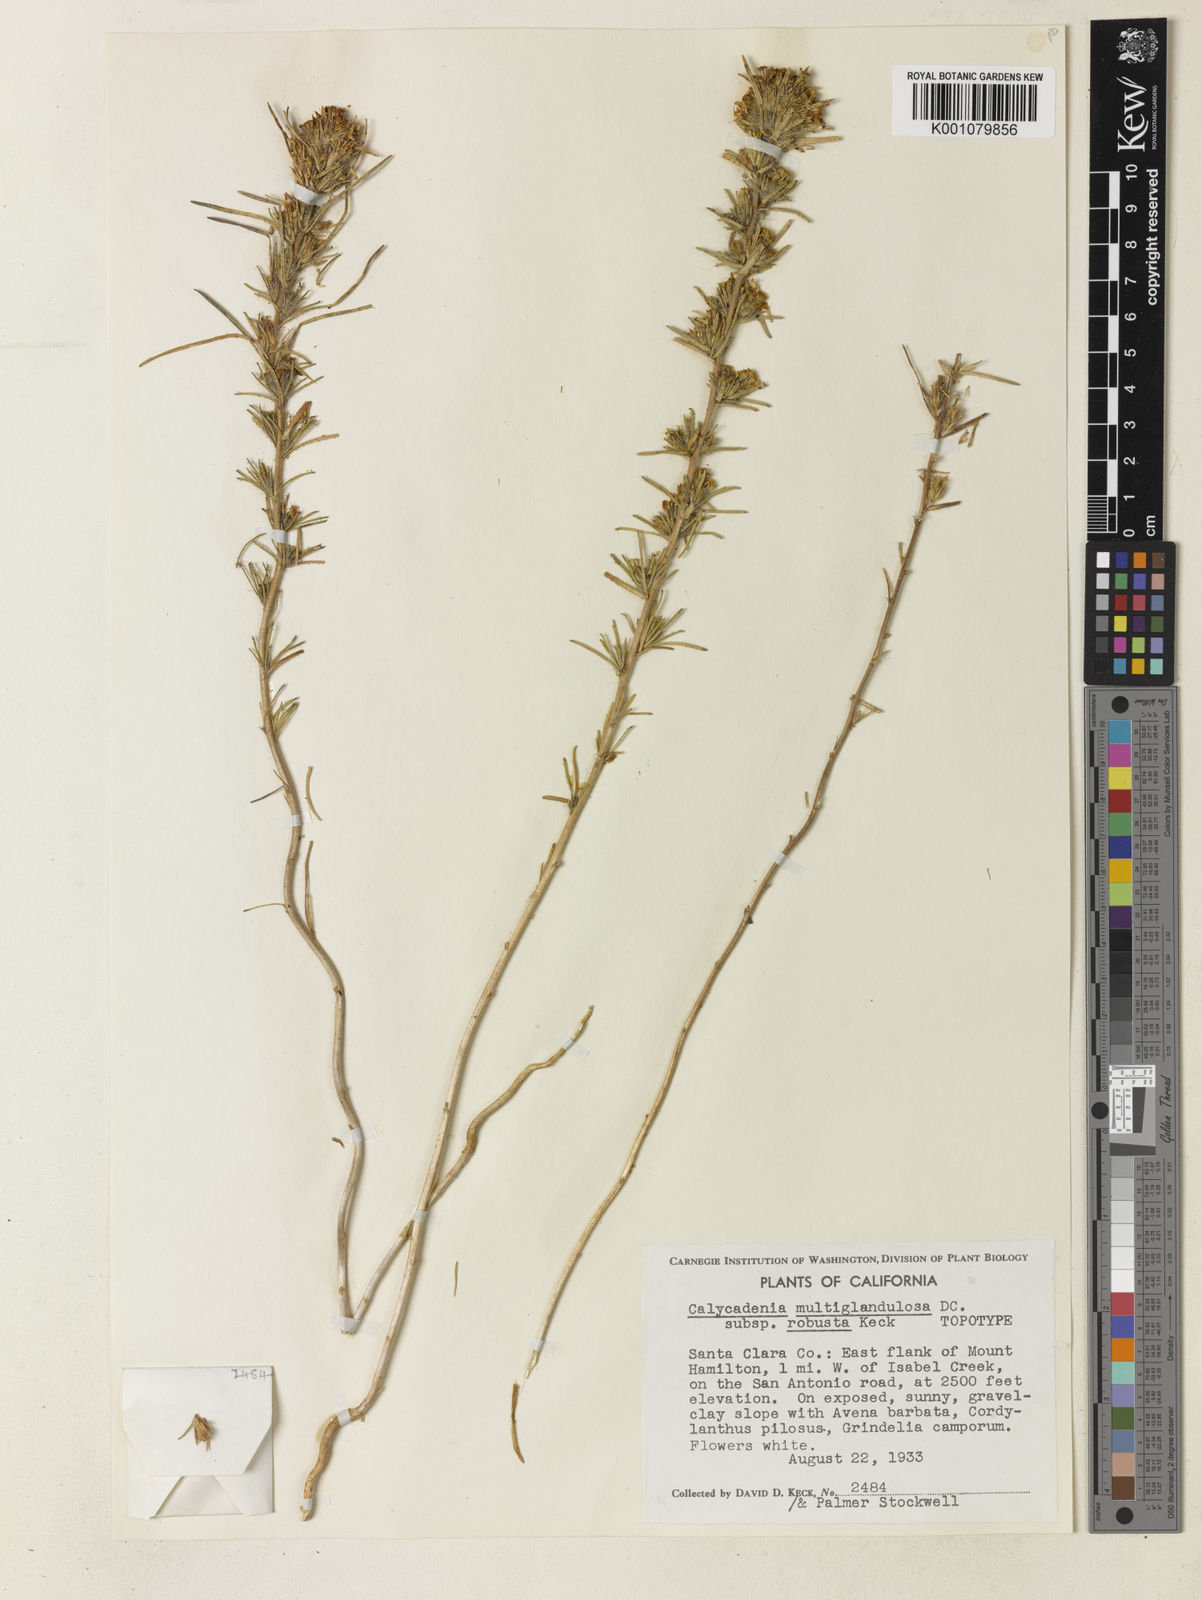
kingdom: Plantae
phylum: Tracheophyta
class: Magnoliopsida
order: Asterales
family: Asteraceae
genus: Calycadenia
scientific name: Calycadenia multiglandulosa
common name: Sticky calycadenia
